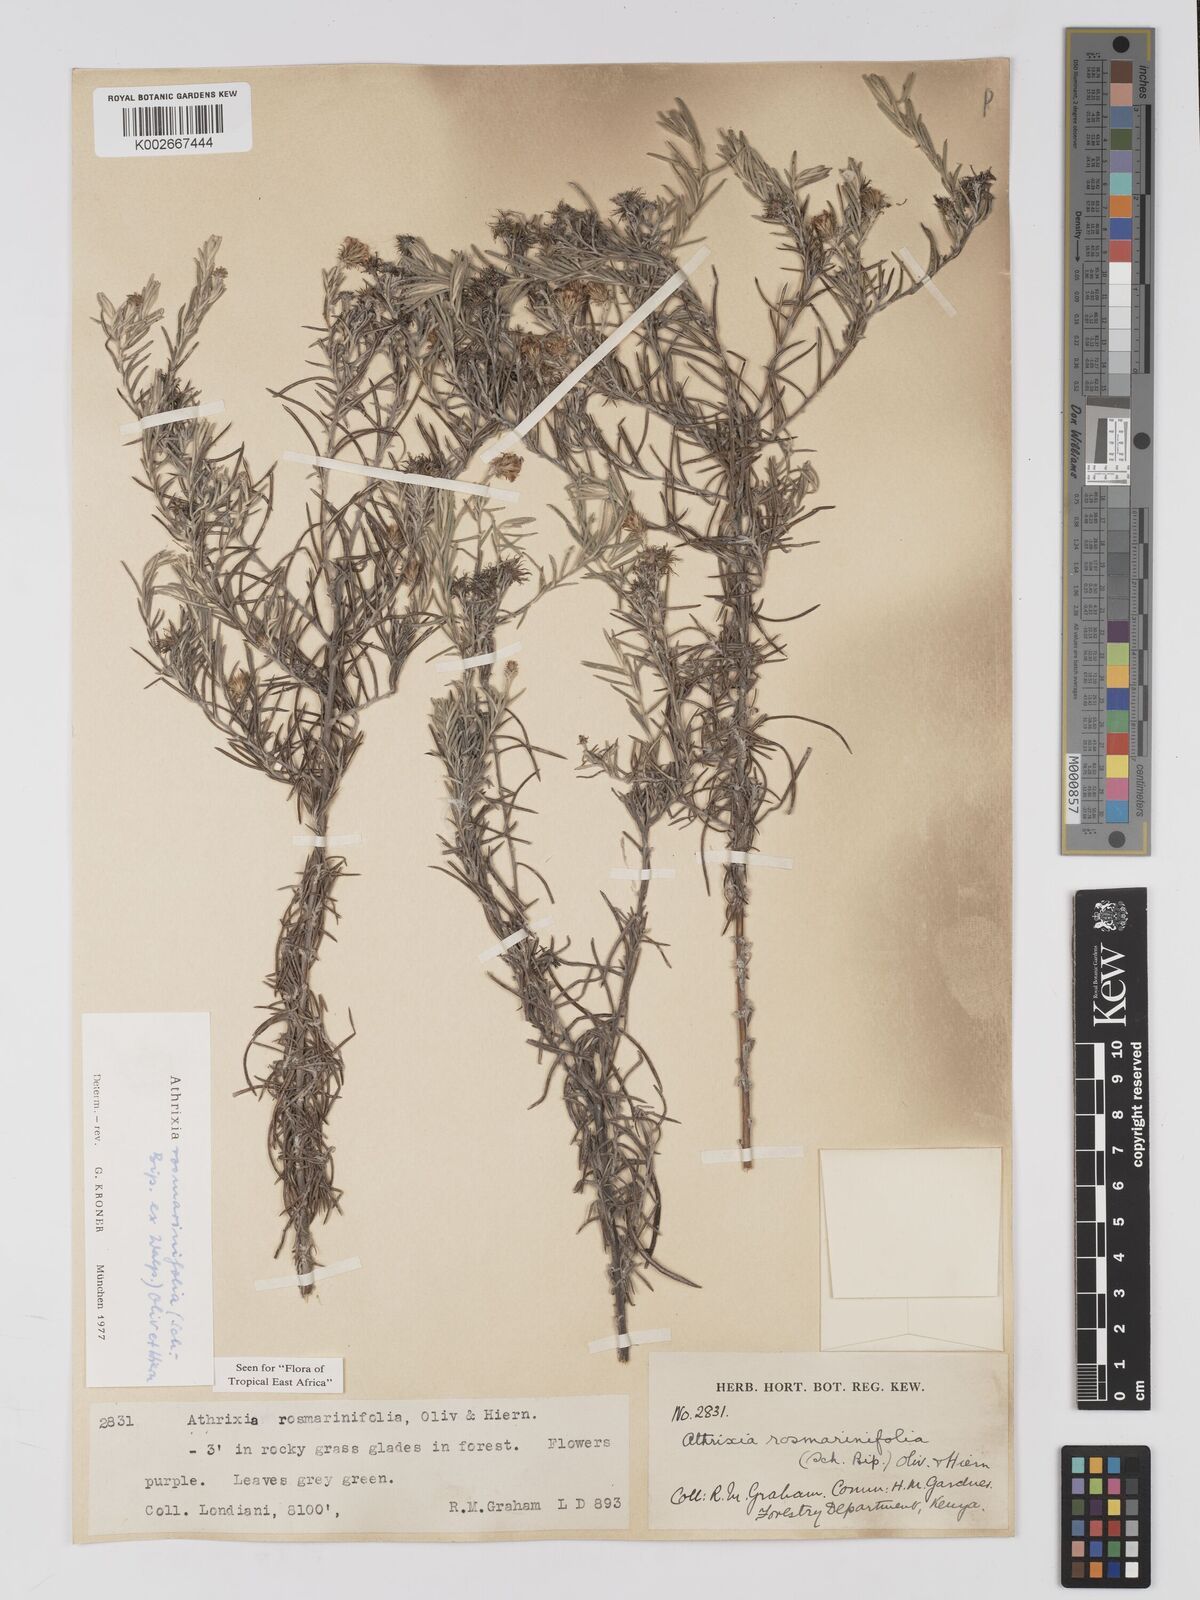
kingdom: Plantae
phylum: Tracheophyta
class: Magnoliopsida
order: Asterales
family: Asteraceae
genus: Athrixia
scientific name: Athrixia rosmarinifolia
